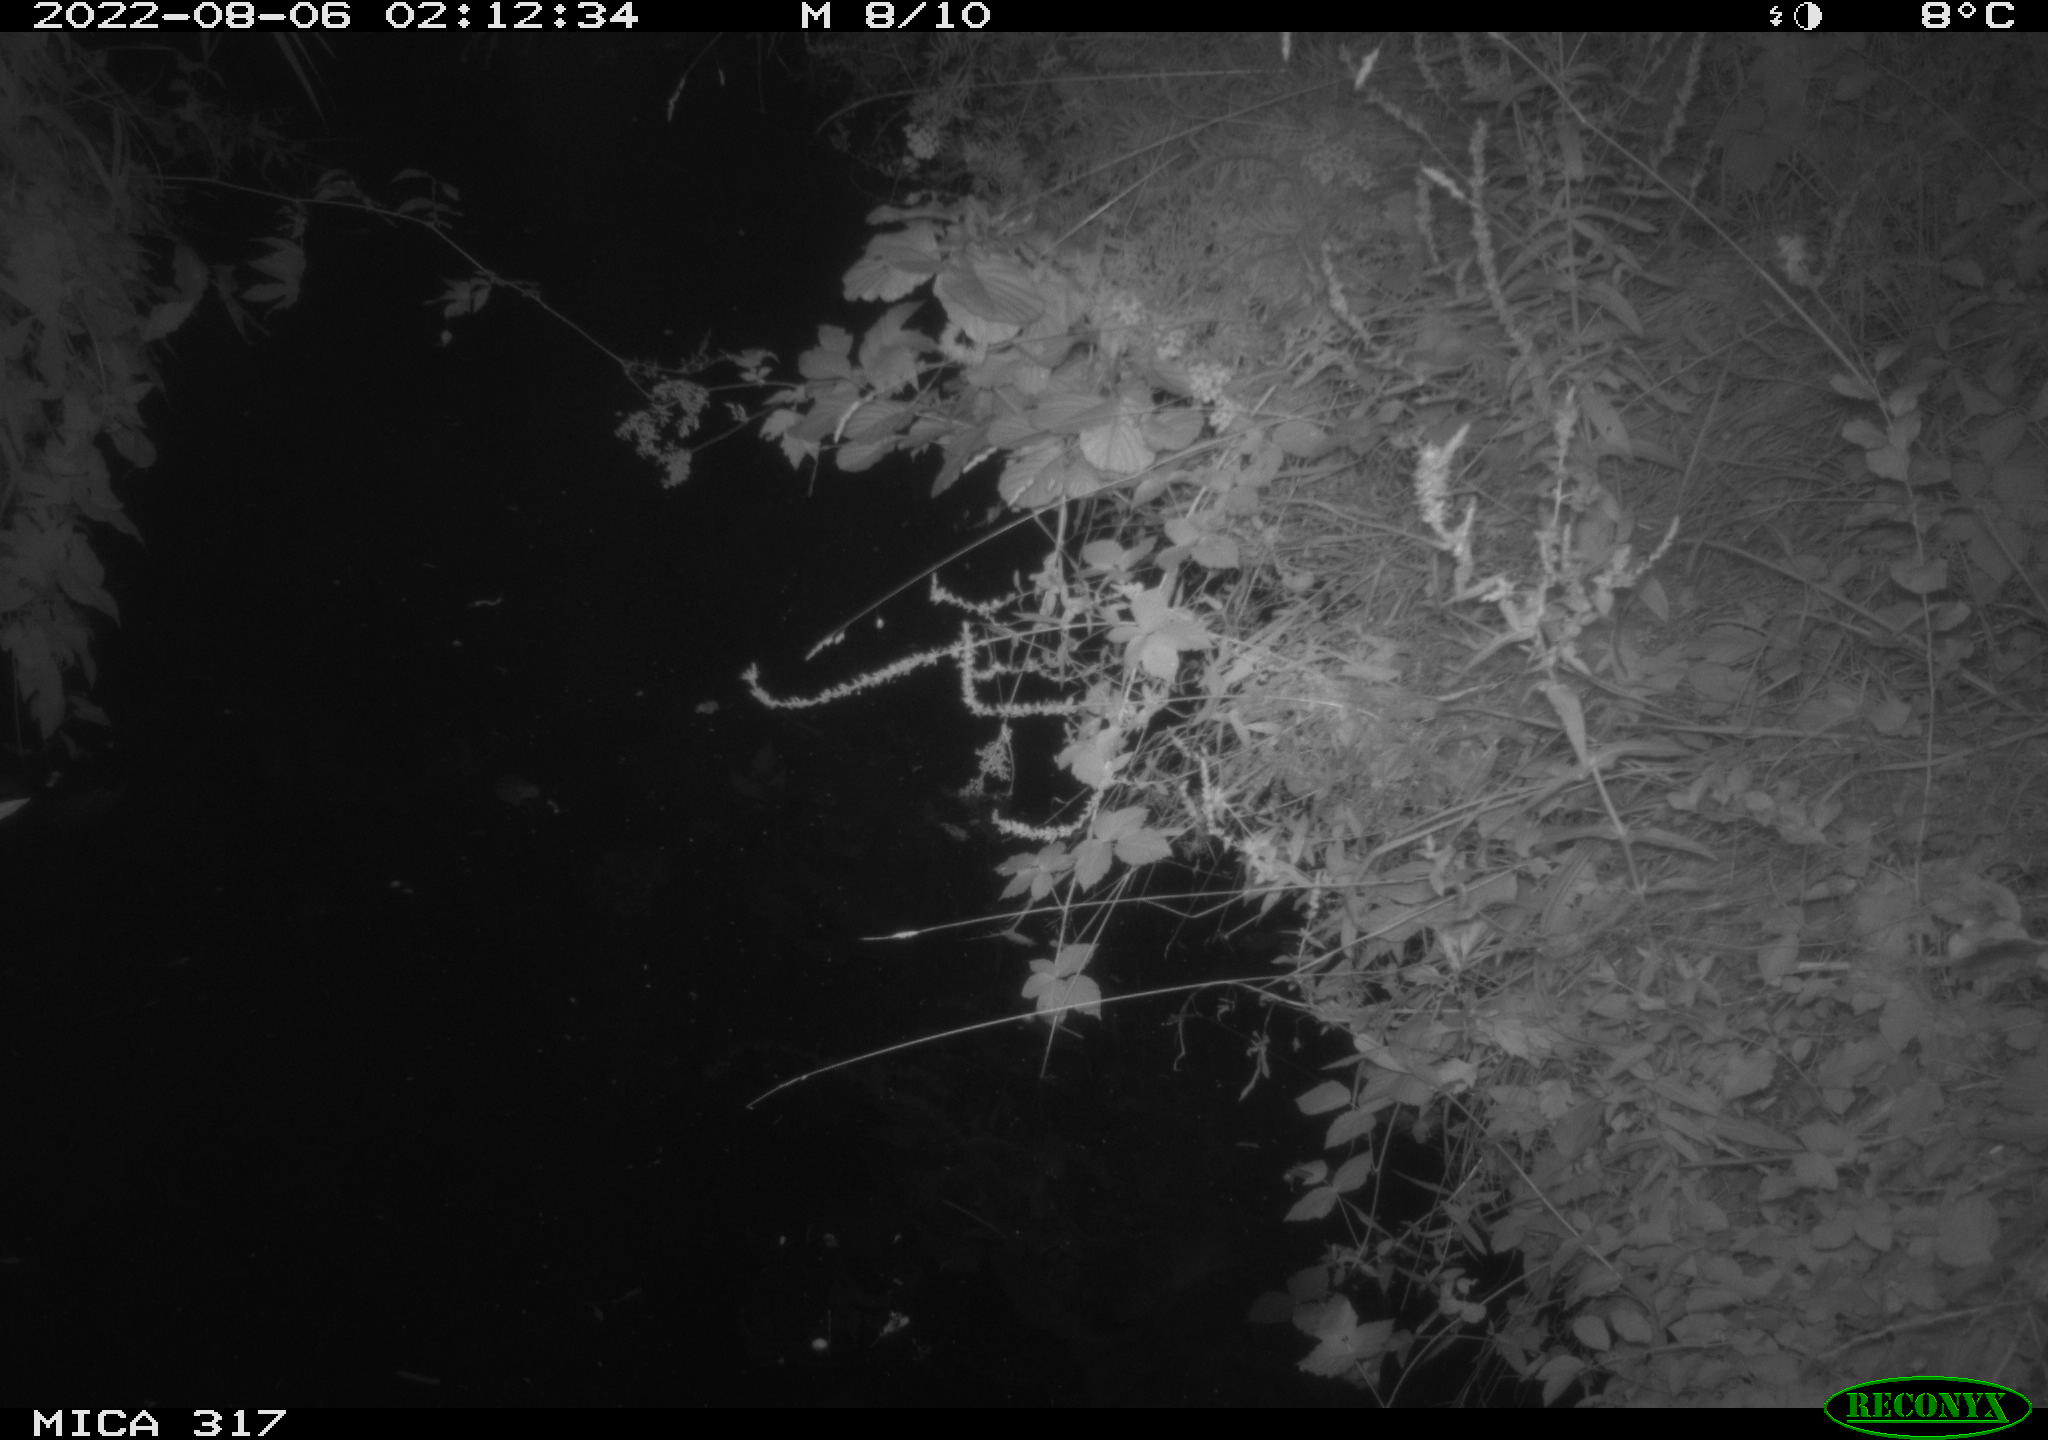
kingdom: Animalia
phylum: Chordata
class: Aves
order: Anseriformes
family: Anatidae
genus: Anas
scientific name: Anas
